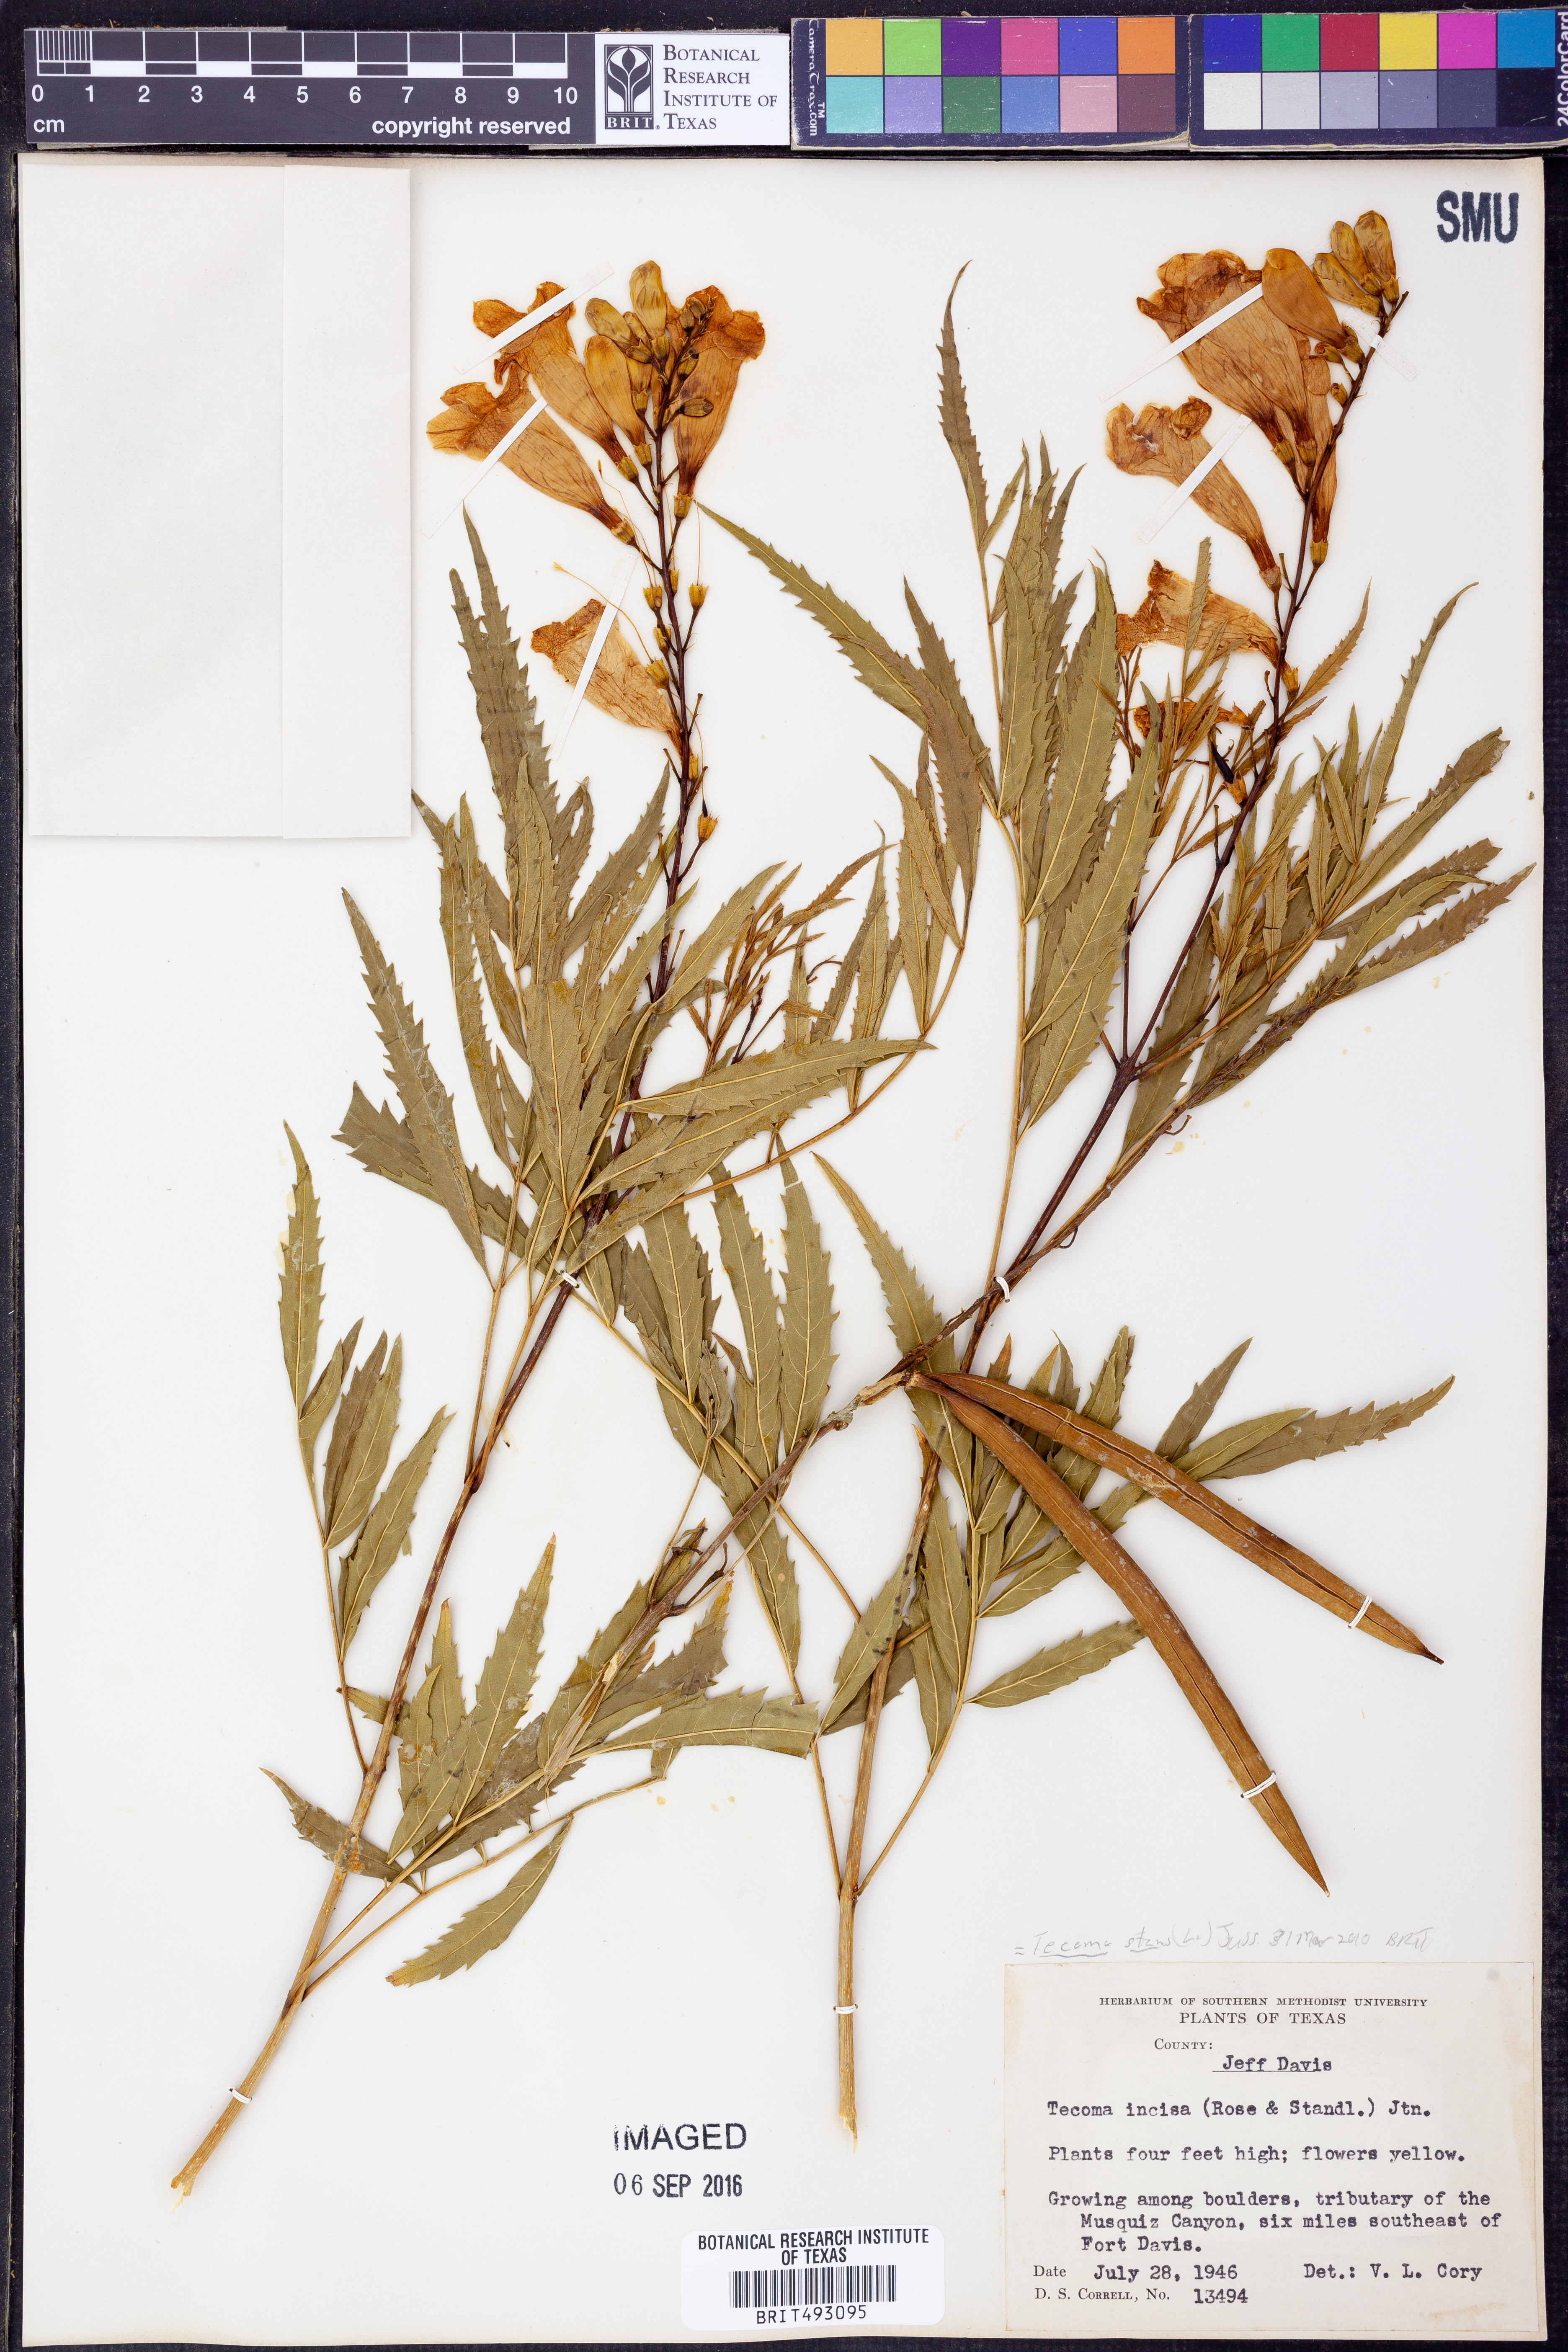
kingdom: Plantae
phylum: Tracheophyta
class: Magnoliopsida
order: Lamiales
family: Bignoniaceae
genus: Tecoma
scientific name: Tecoma stans
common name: Yellow trumpetbush
